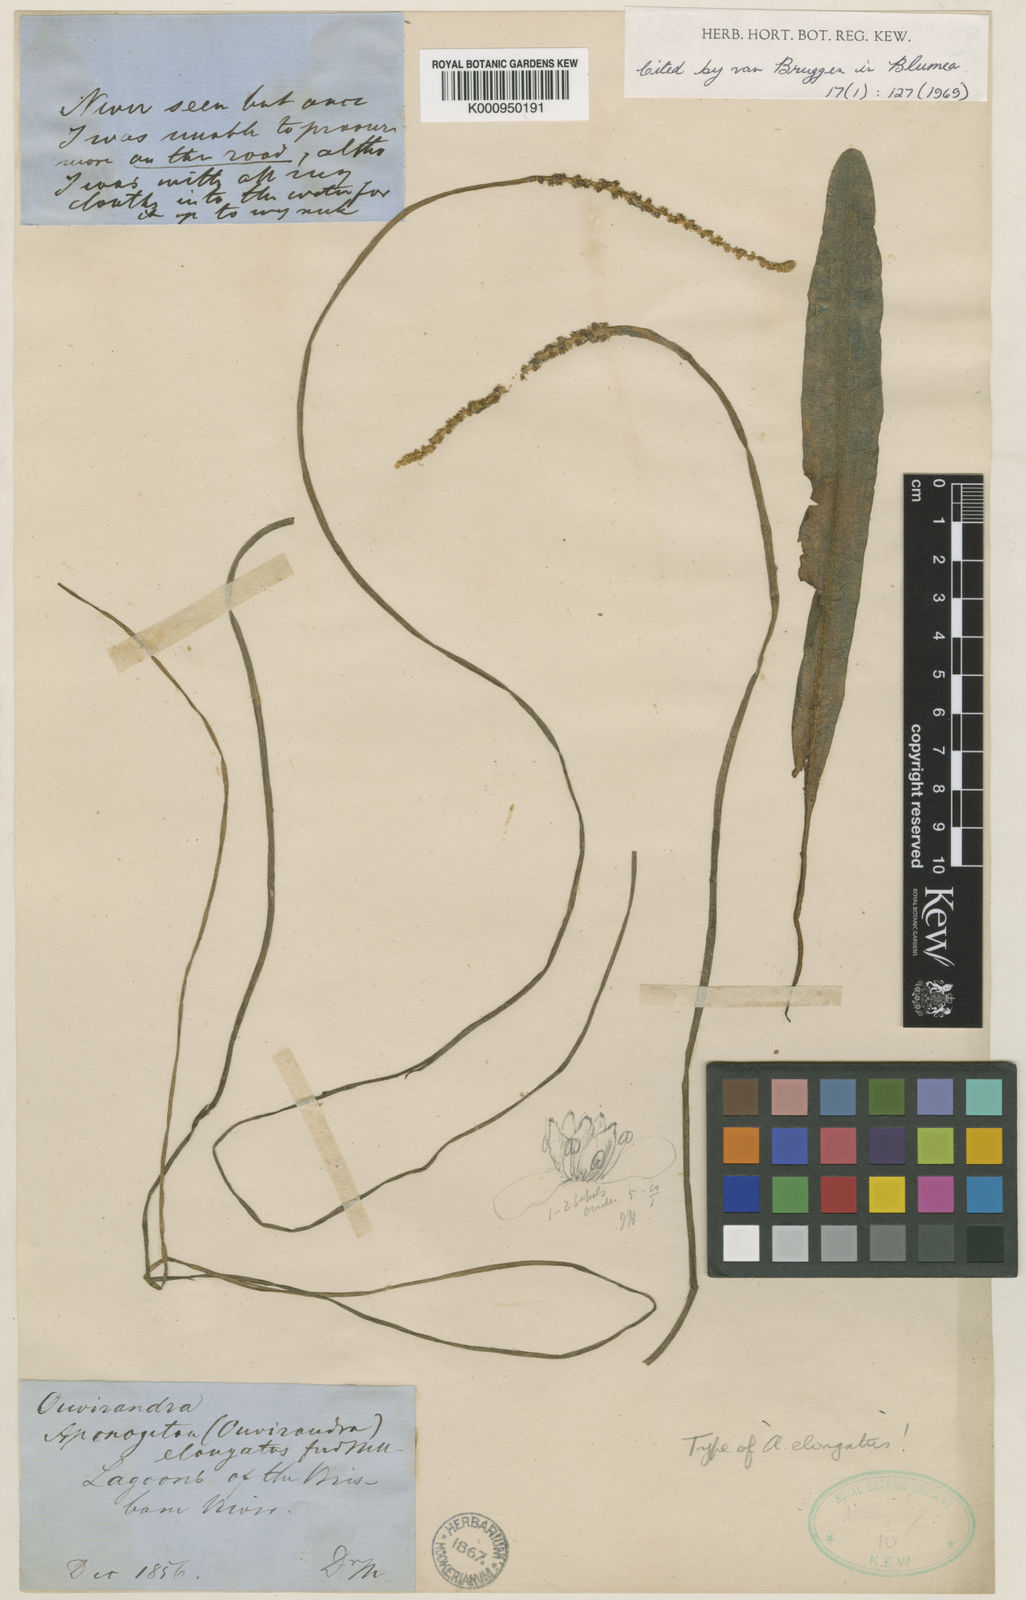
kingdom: Plantae
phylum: Tracheophyta
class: Liliopsida
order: Alismatales
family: Aponogetonaceae
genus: Aponogeton
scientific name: Aponogeton elongatus
